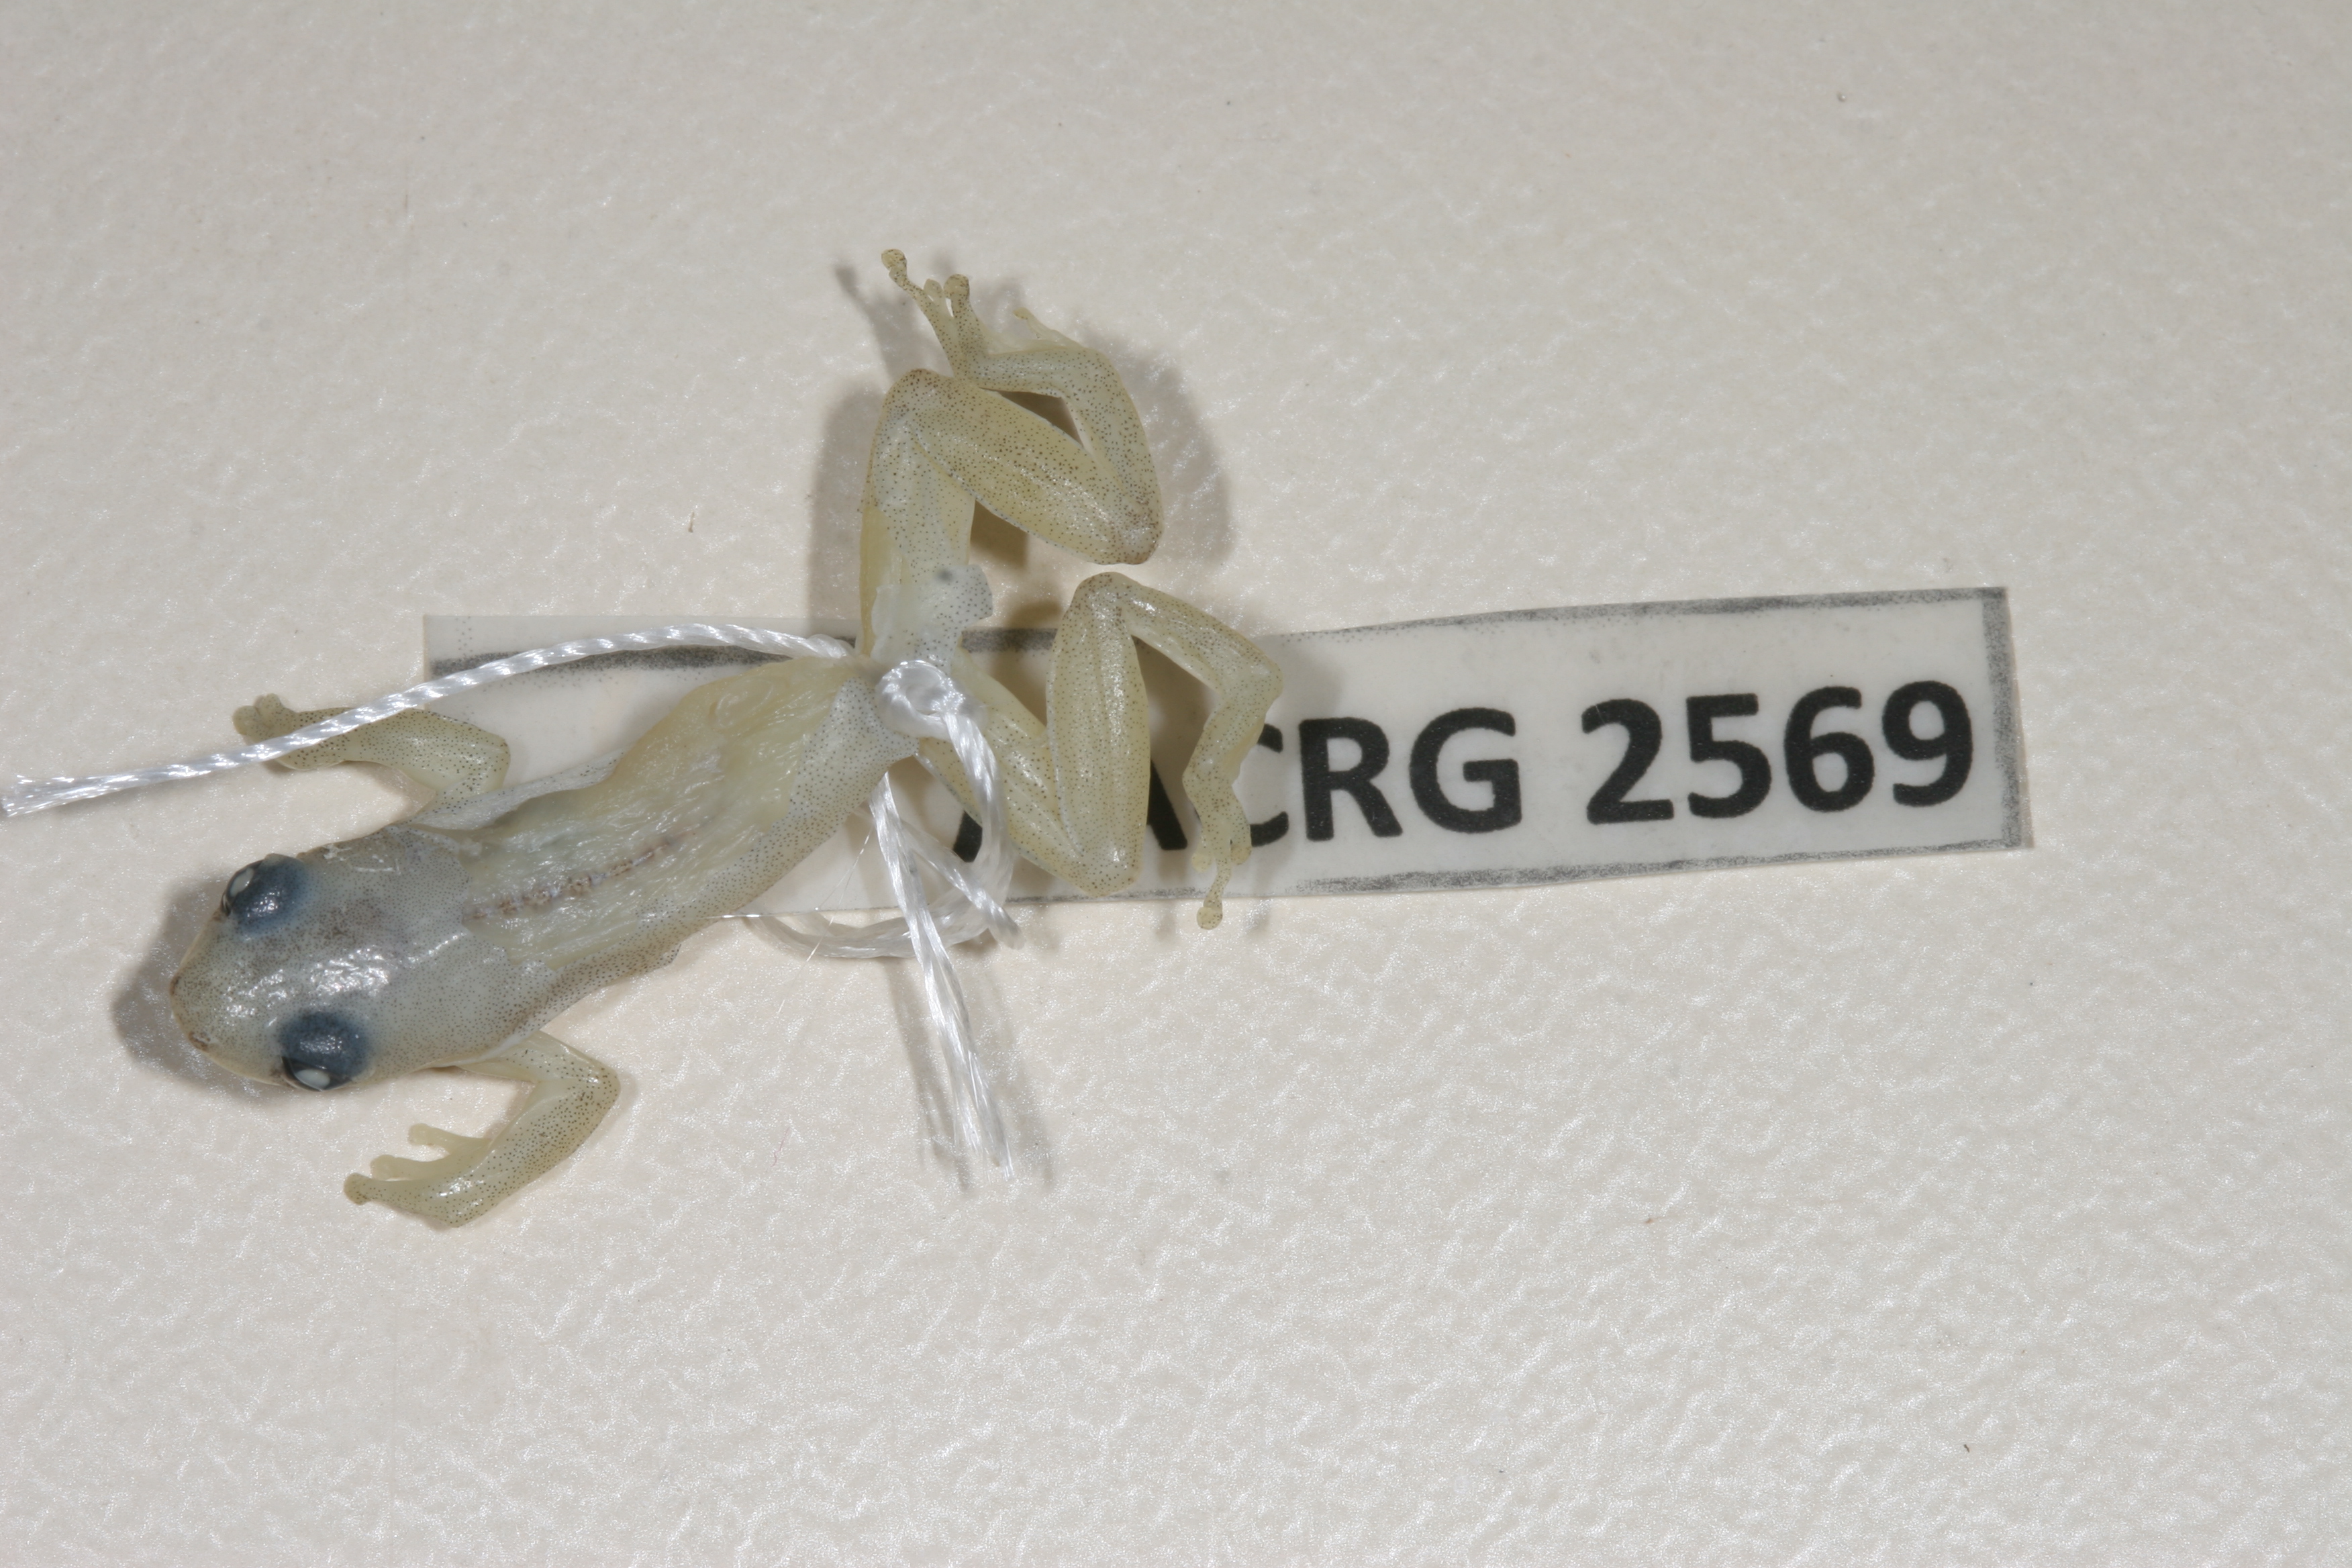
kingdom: Animalia
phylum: Chordata
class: Amphibia
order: Anura
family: Hyperoliidae
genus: Afrixalus
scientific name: Afrixalus aureus
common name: Golden banana frog
